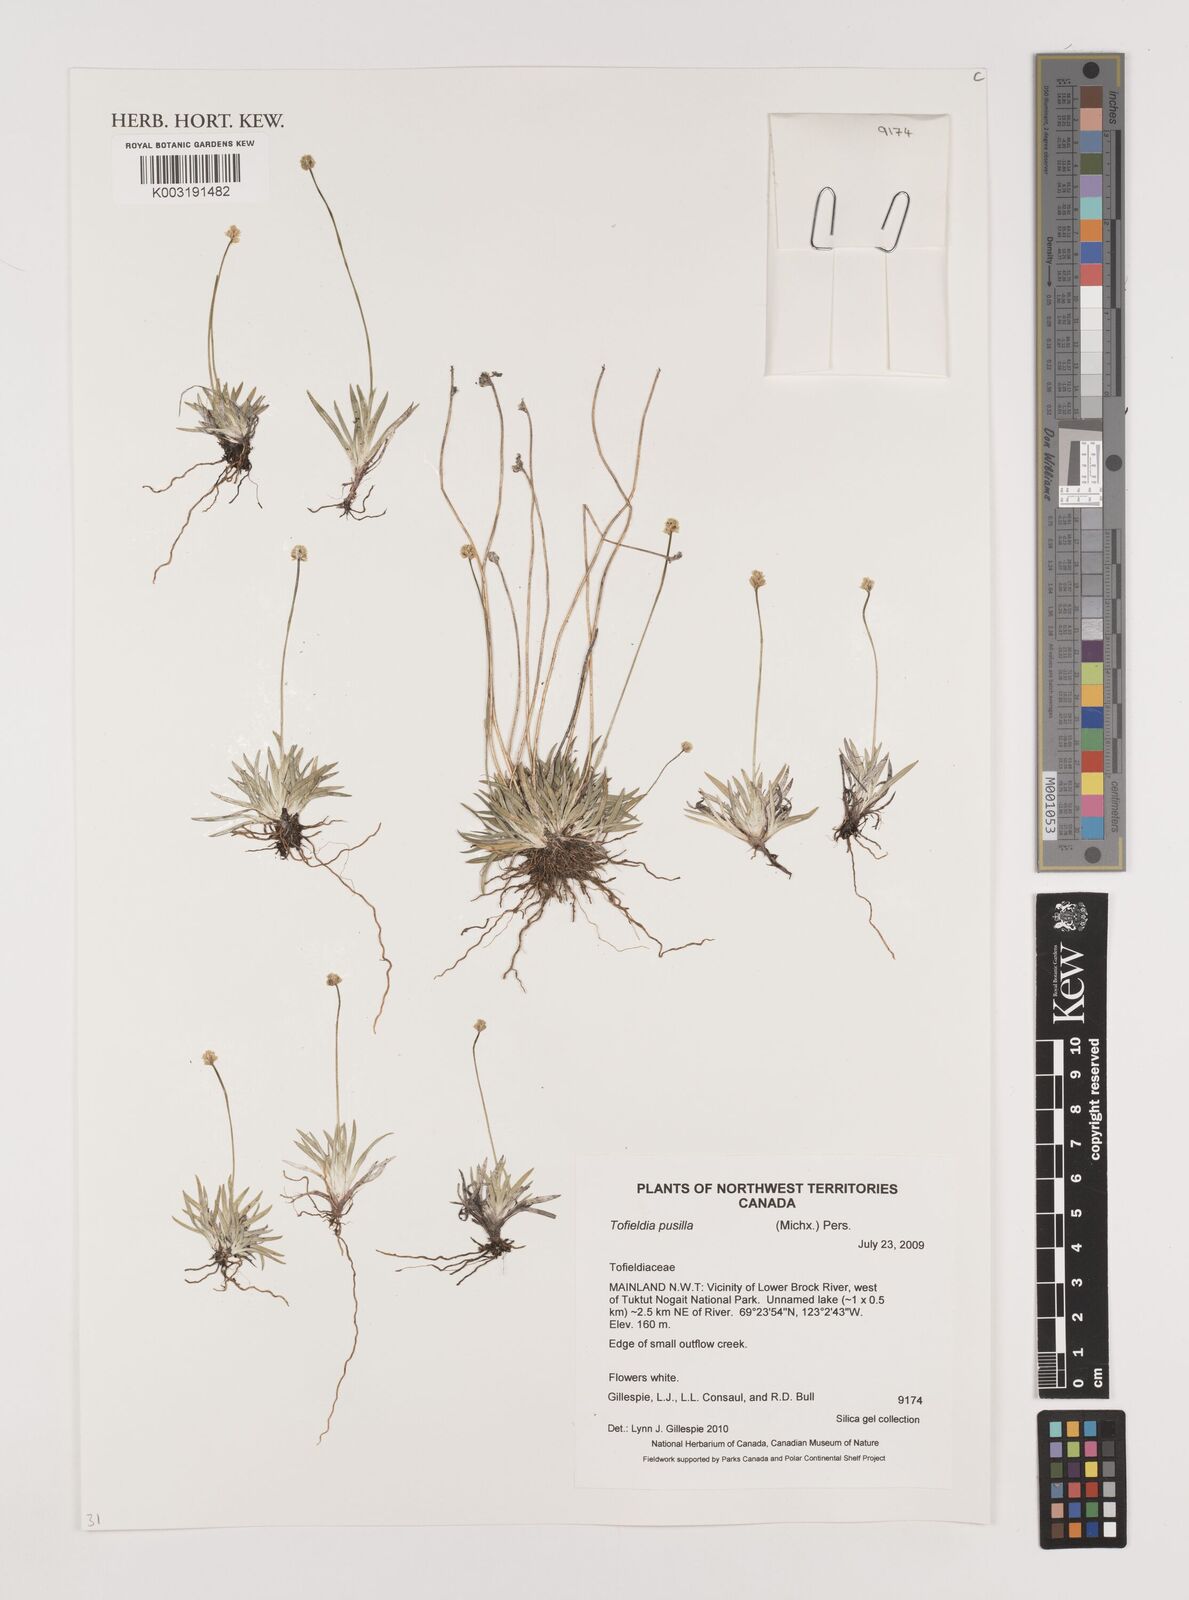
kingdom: Plantae
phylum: Tracheophyta
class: Liliopsida
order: Alismatales
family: Tofieldiaceae
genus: Tofieldia
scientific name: Tofieldia pusilla
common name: Scottish false asphodel
